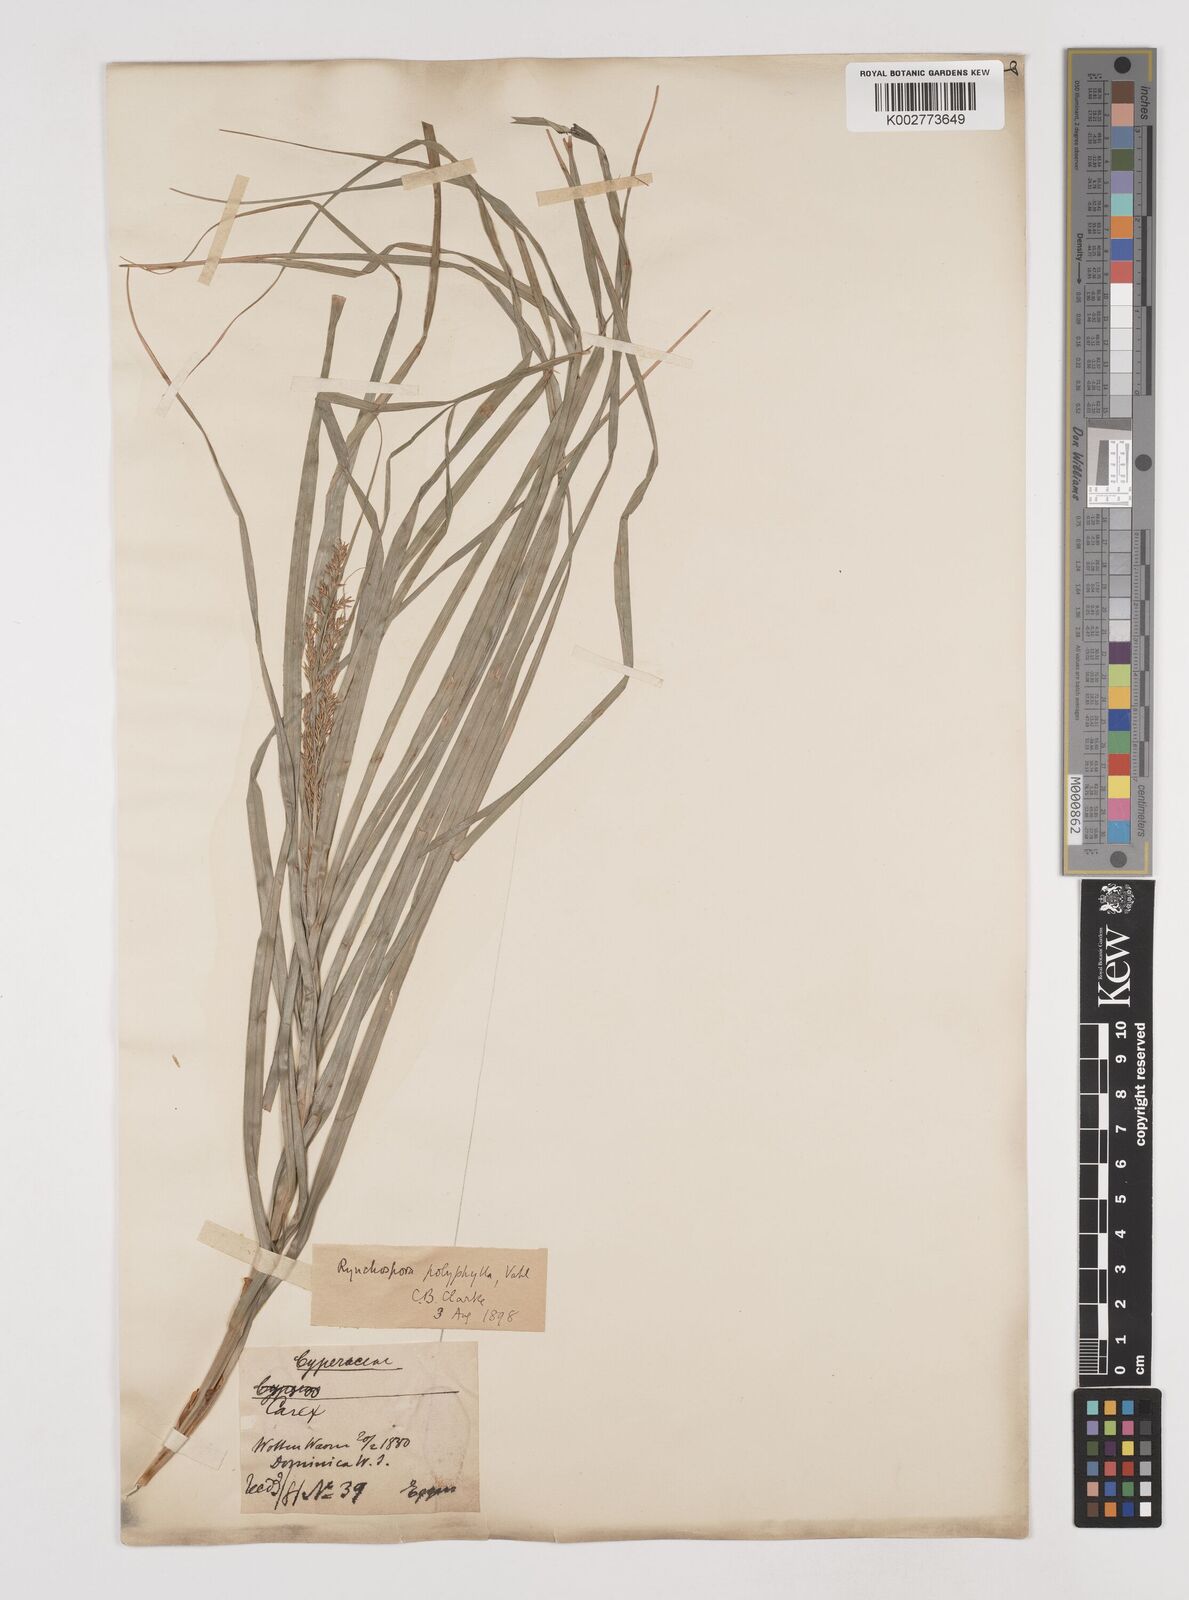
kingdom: Plantae
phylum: Tracheophyta
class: Liliopsida
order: Poales
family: Cyperaceae
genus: Rhynchospora
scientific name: Rhynchospora polyphylla
